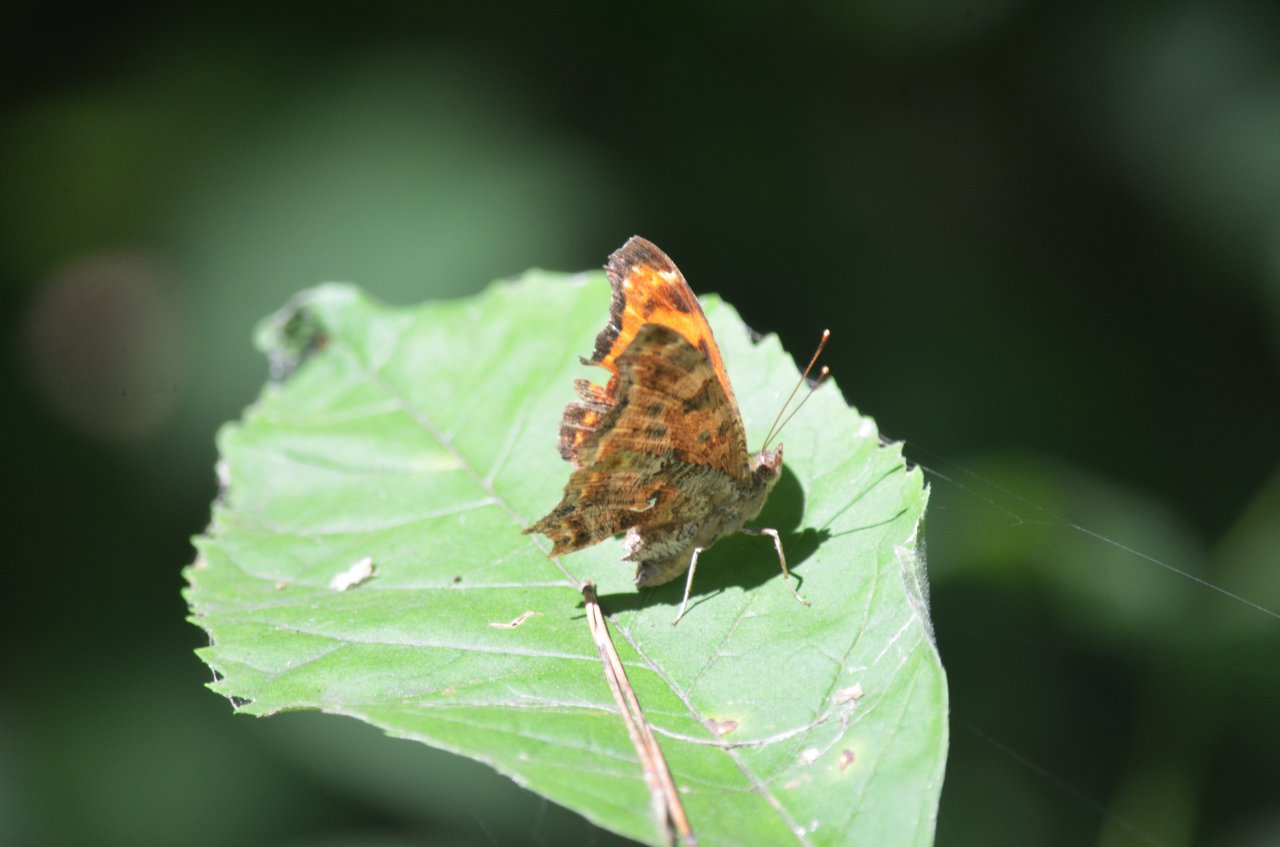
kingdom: Animalia
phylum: Arthropoda
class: Insecta
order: Lepidoptera
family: Nymphalidae
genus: Polygonia
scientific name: Polygonia comma
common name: Eastern Comma
